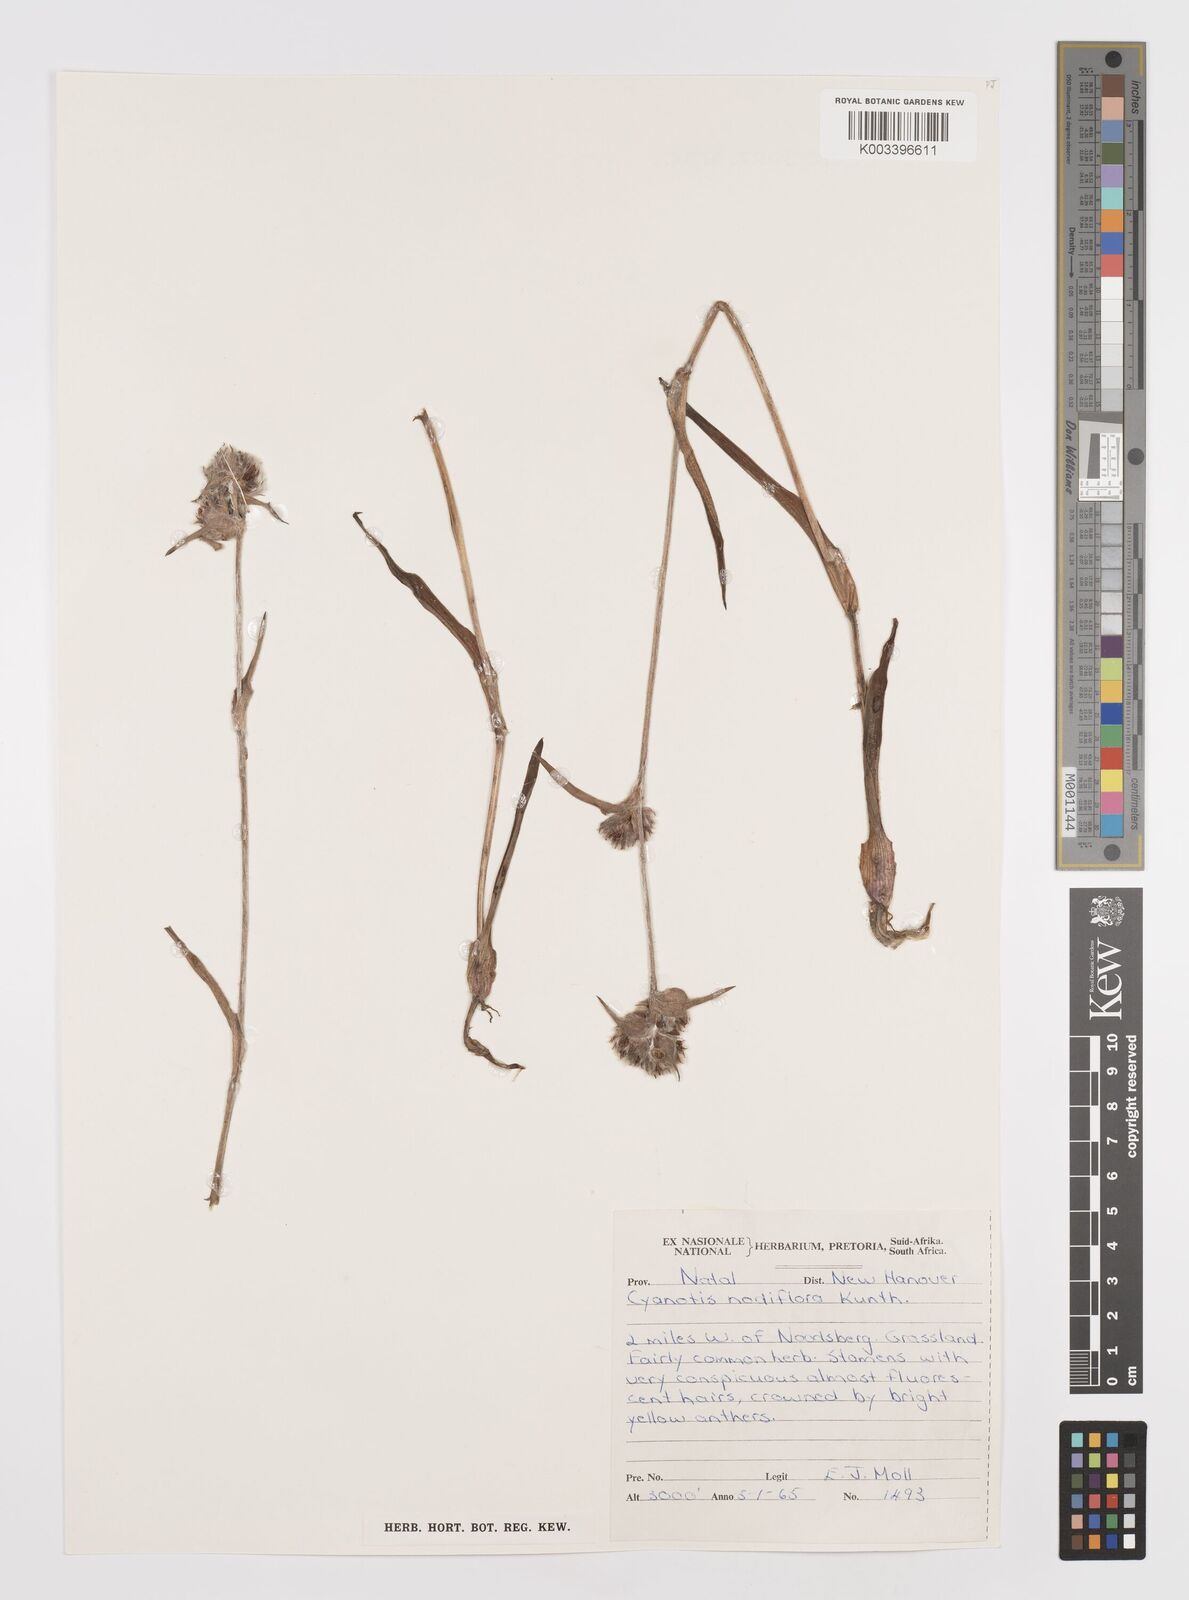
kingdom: Plantae
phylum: Tracheophyta
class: Liliopsida
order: Commelinales
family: Commelinaceae
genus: Cyanotis
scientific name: Cyanotis speciosa
